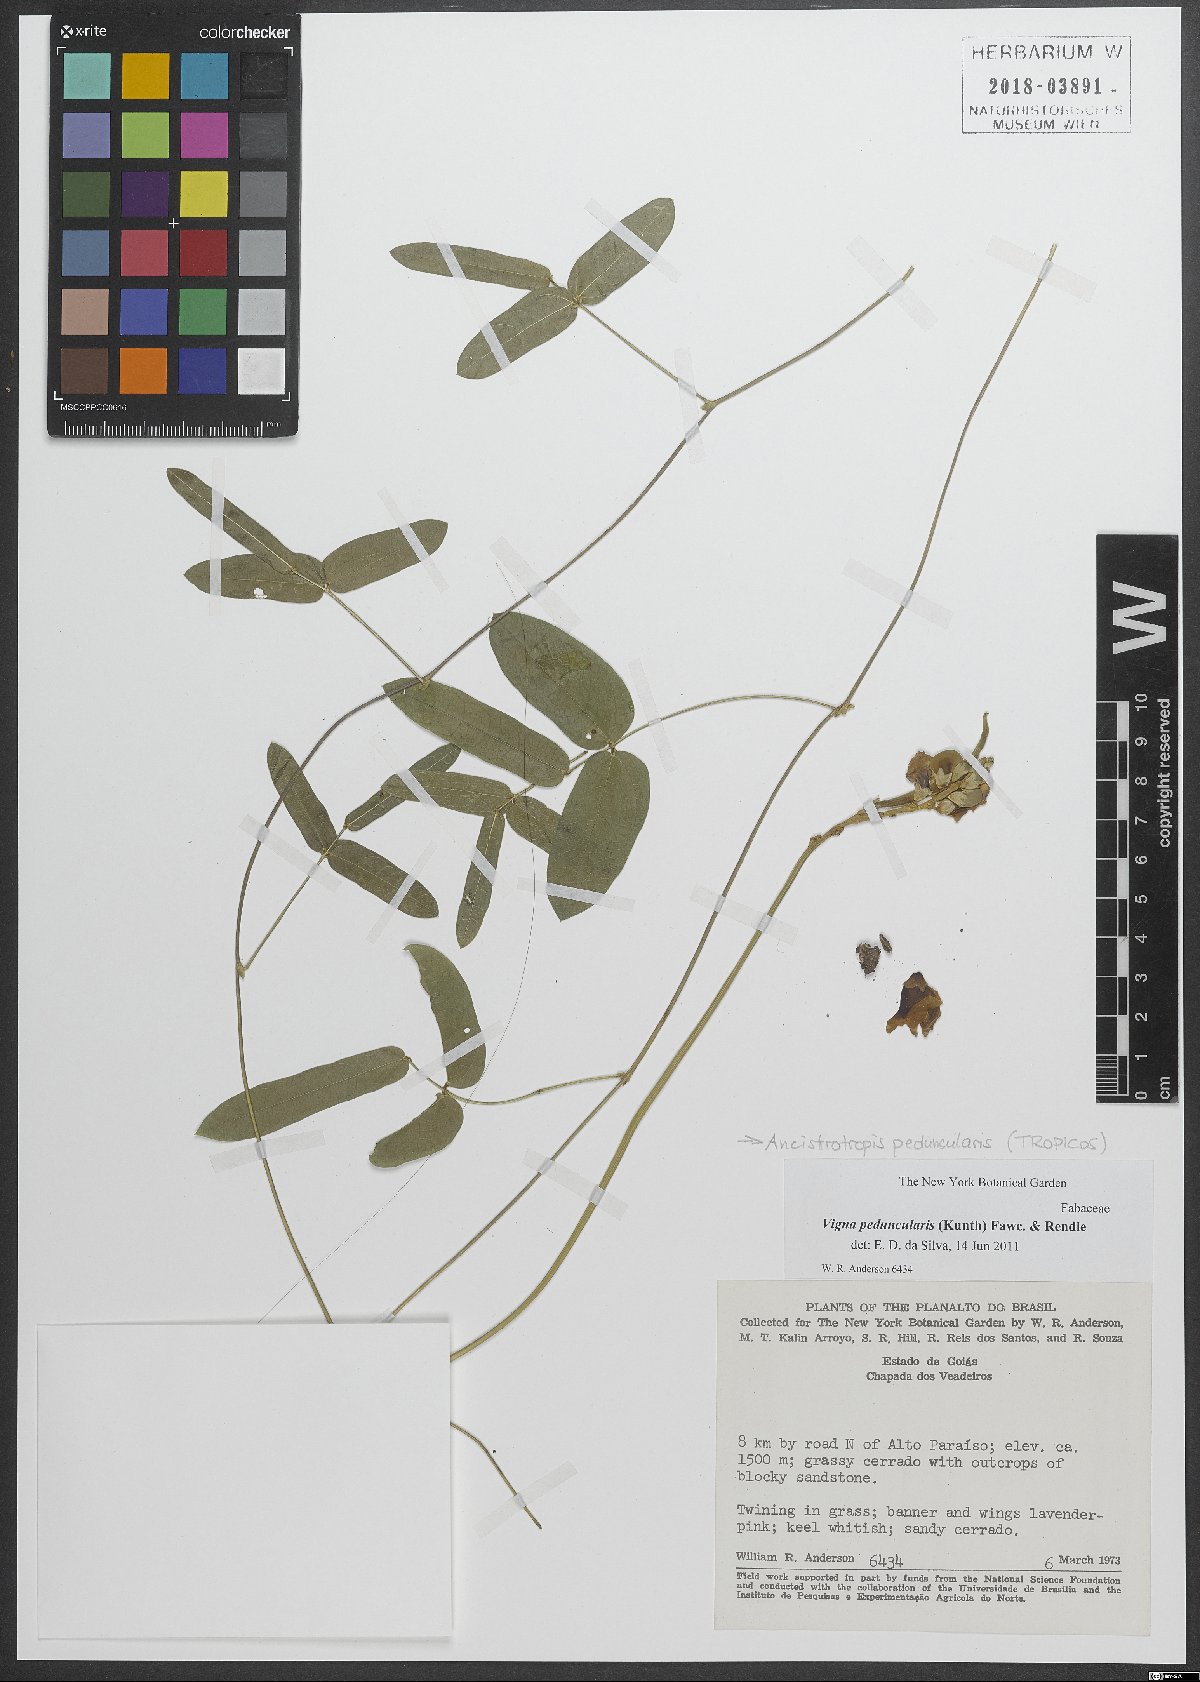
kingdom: Plantae
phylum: Tracheophyta
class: Magnoliopsida
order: Fabales
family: Fabaceae
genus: Ancistrotropis
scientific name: Ancistrotropis peduncularis
